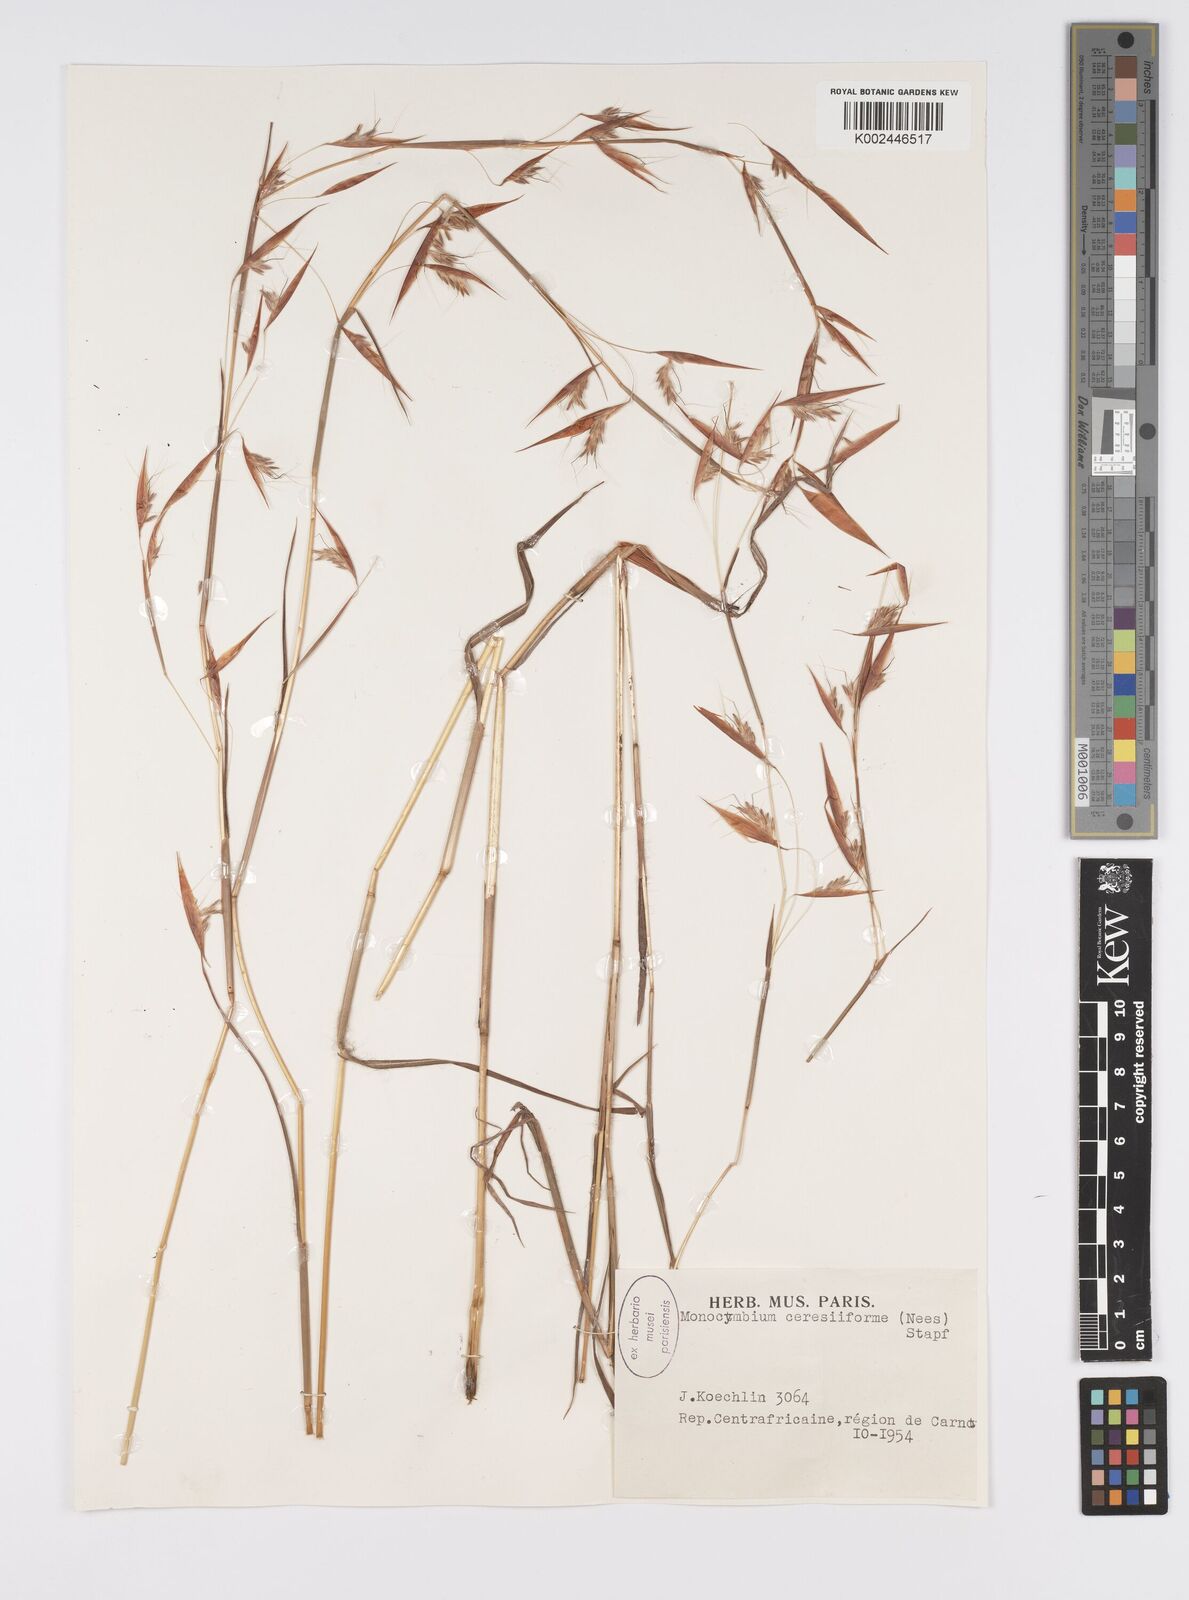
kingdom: Plantae
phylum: Tracheophyta
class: Liliopsida
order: Poales
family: Poaceae
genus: Monocymbium
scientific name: Monocymbium ceresiiforme
